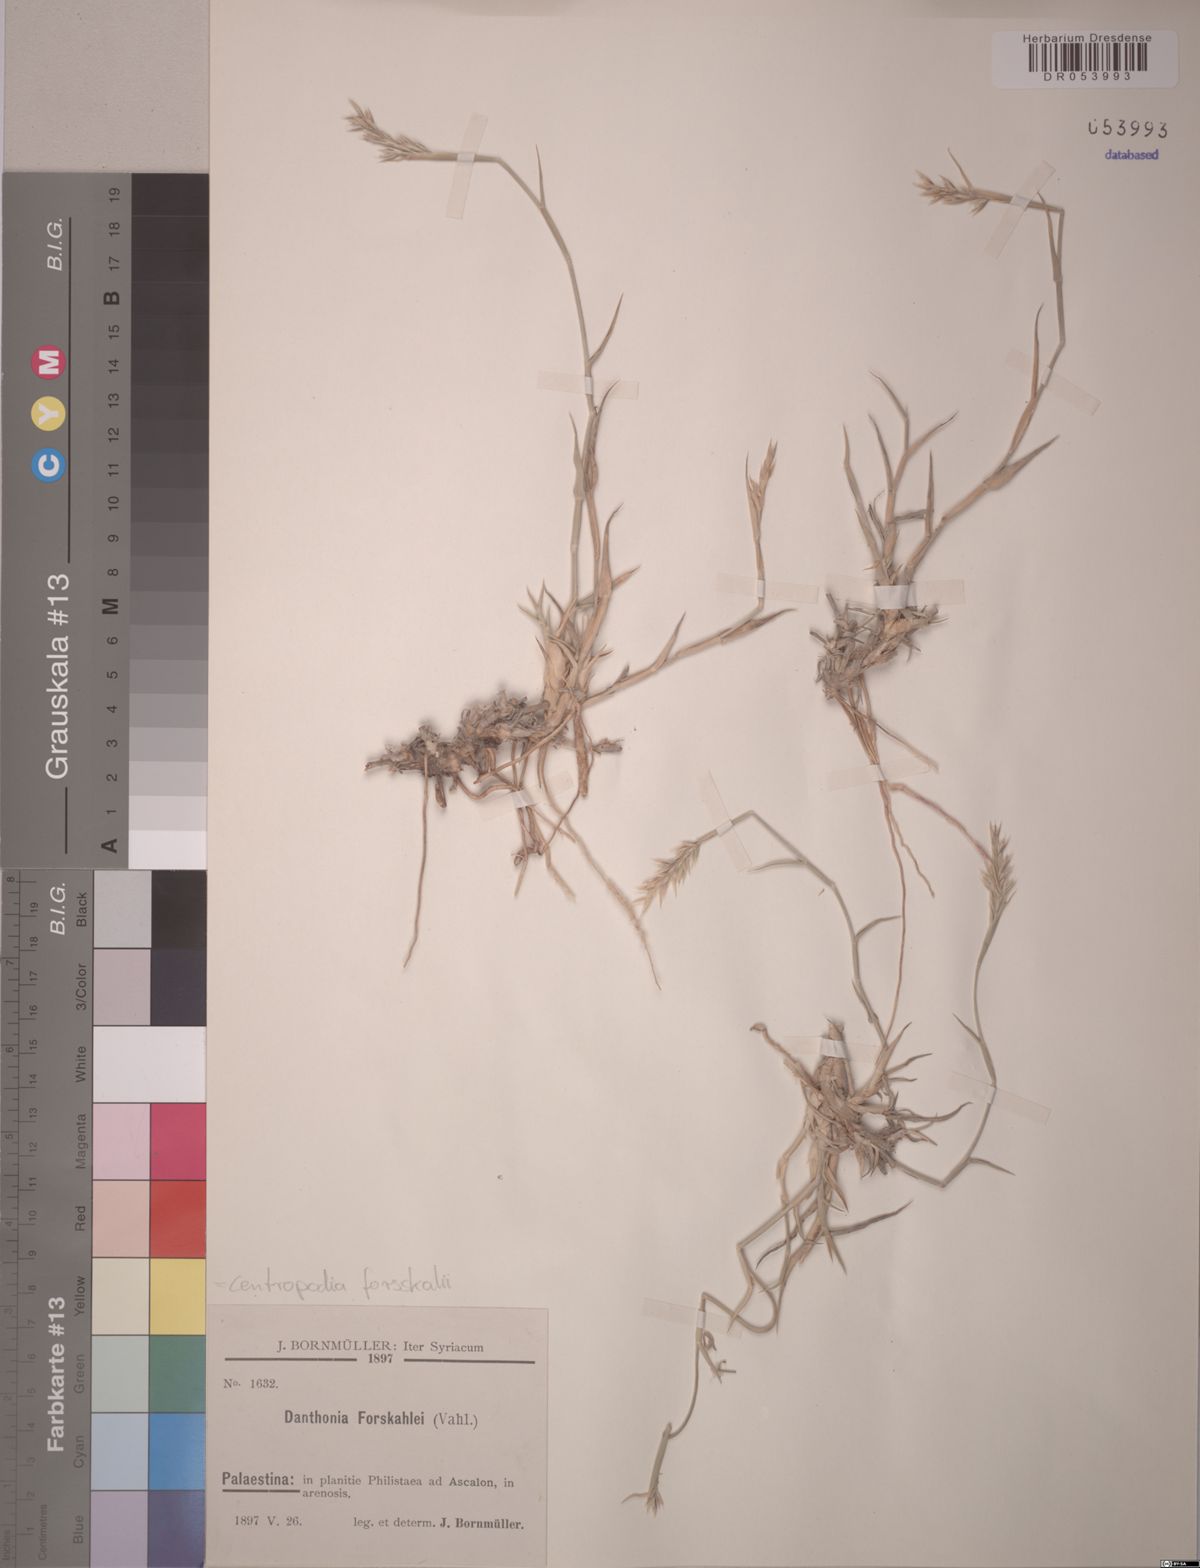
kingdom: Plantae
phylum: Tracheophyta
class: Liliopsida
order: Poales
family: Poaceae
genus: Centropodia
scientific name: Centropodia forsskalii
